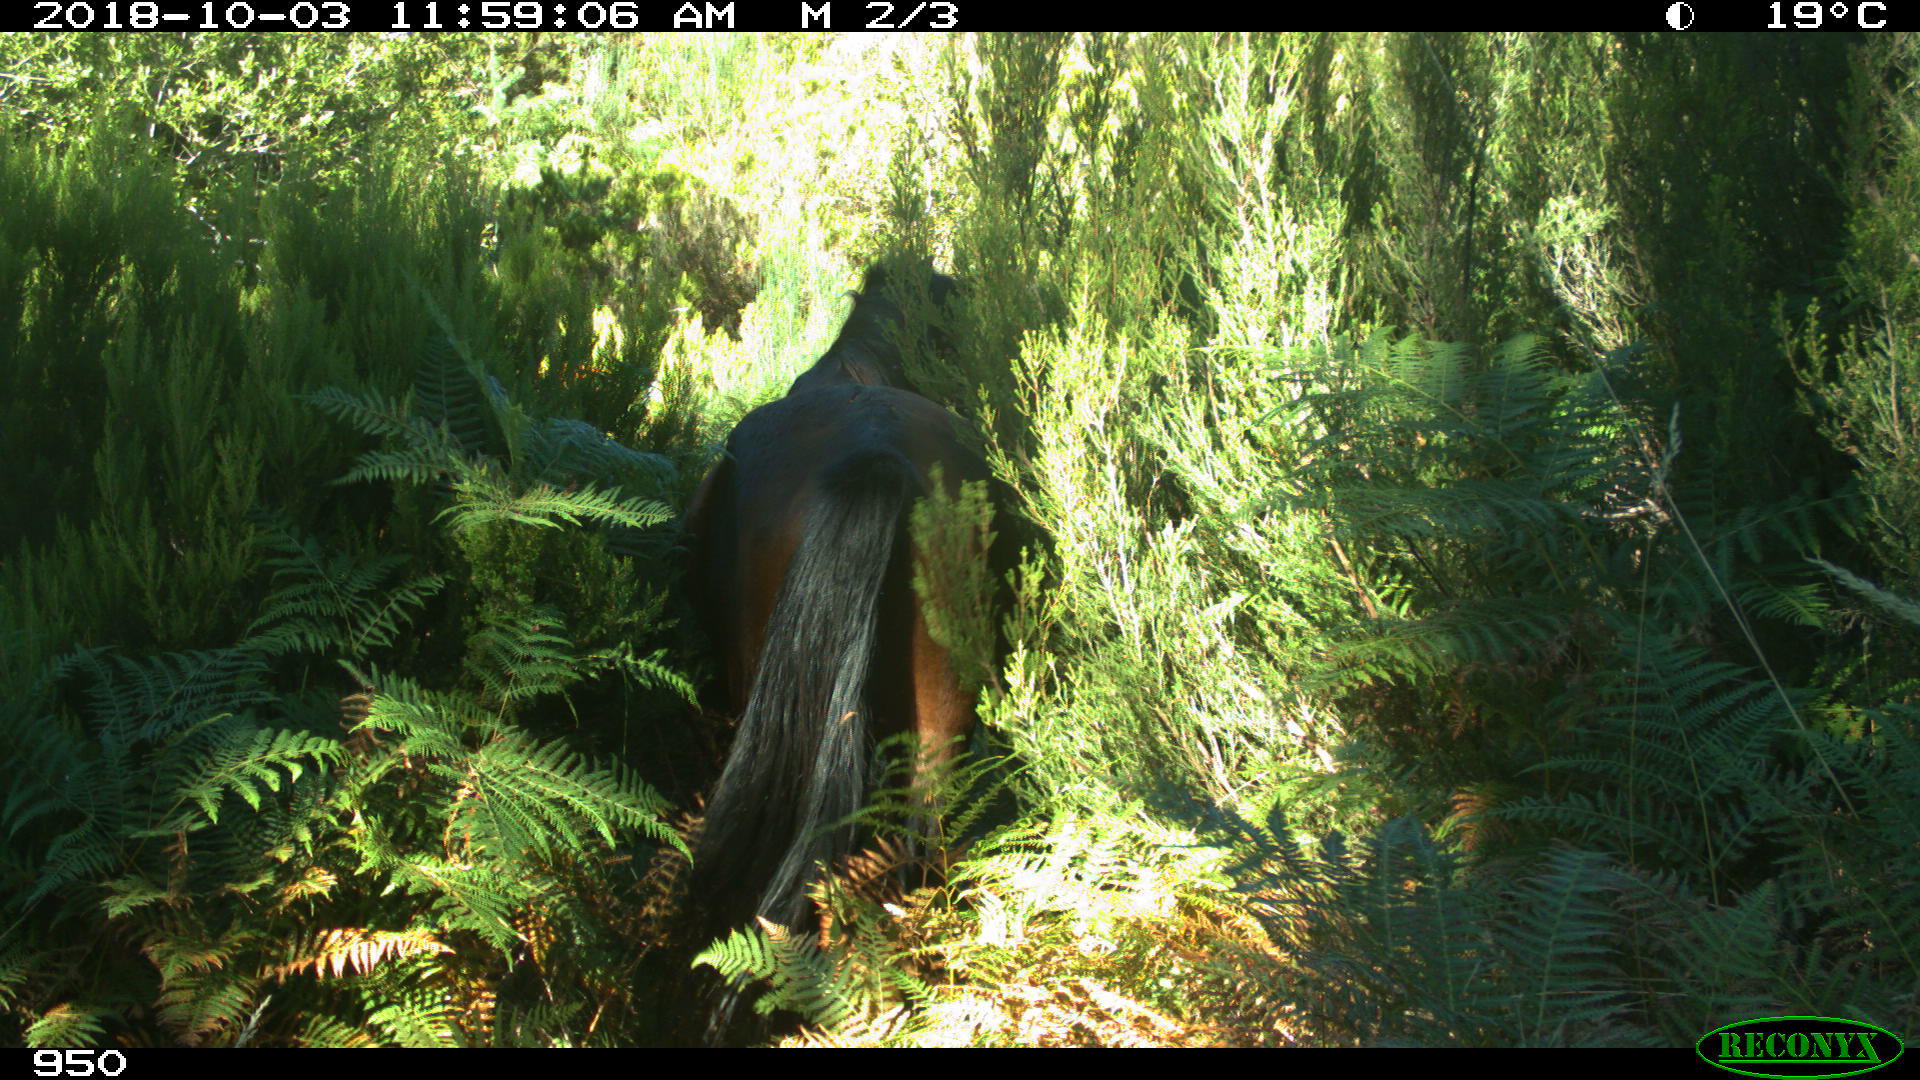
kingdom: Animalia
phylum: Chordata
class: Mammalia
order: Perissodactyla
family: Equidae
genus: Equus
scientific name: Equus caballus
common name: Horse
